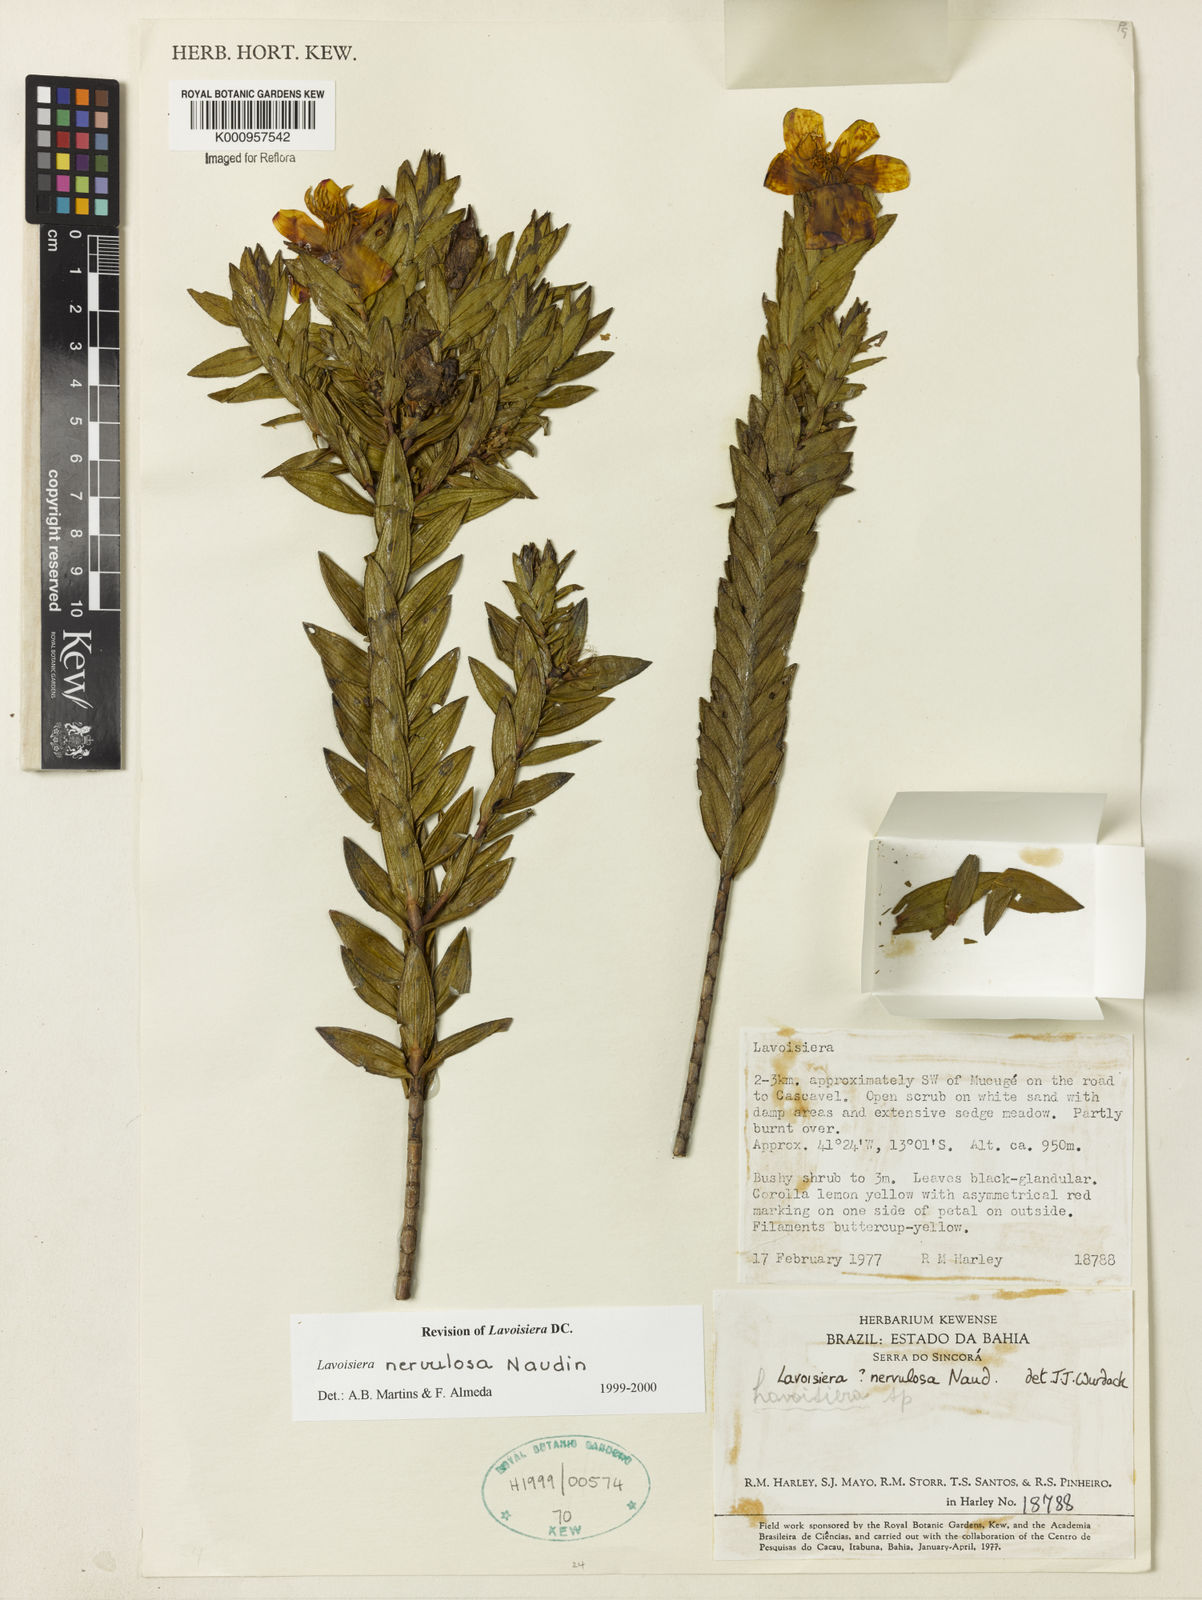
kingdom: Plantae
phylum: Tracheophyta
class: Magnoliopsida
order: Myrtales
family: Melastomataceae
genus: Microlicia
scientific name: Microlicia nervulosa
